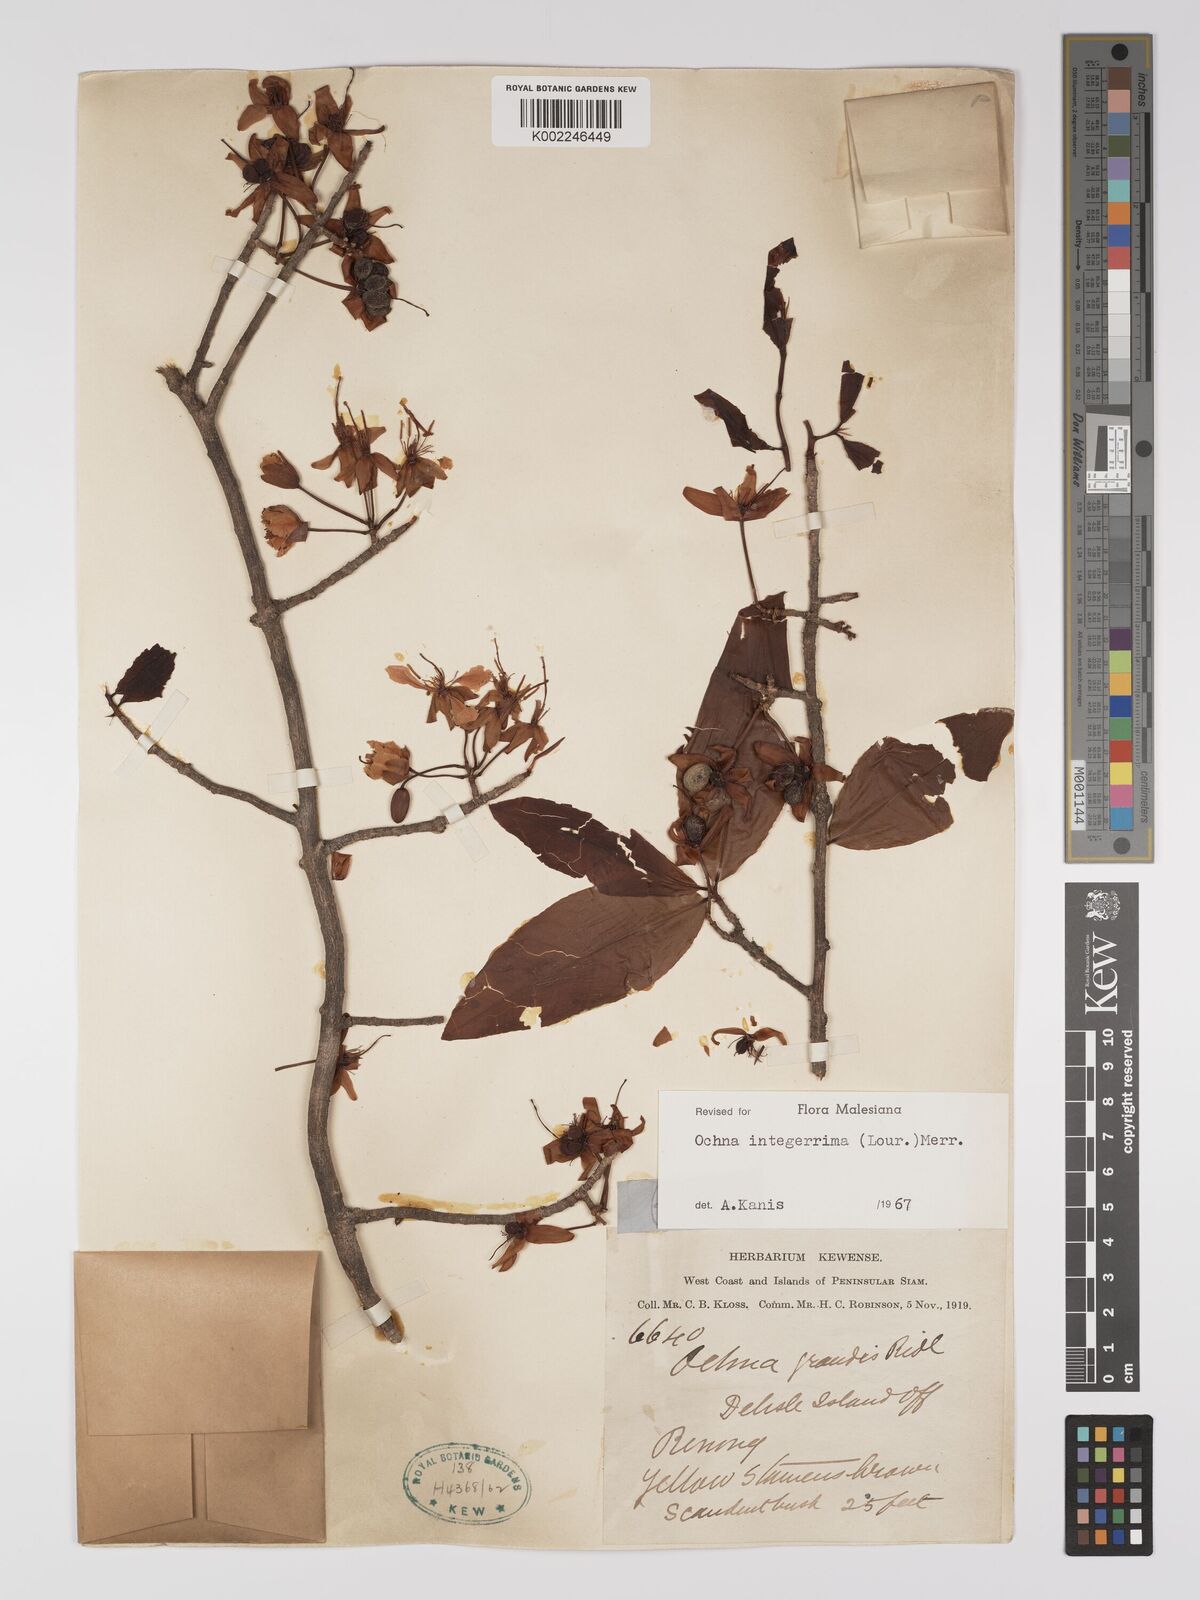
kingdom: Plantae
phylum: Tracheophyta
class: Magnoliopsida
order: Malpighiales
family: Ochnaceae
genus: Ochna
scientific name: Ochna integerrima
